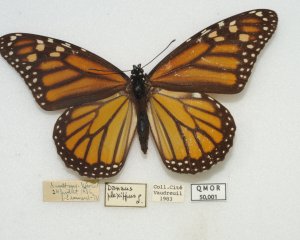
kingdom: Animalia
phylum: Arthropoda
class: Insecta
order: Lepidoptera
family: Nymphalidae
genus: Danaus
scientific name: Danaus plexippus
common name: Monarch
